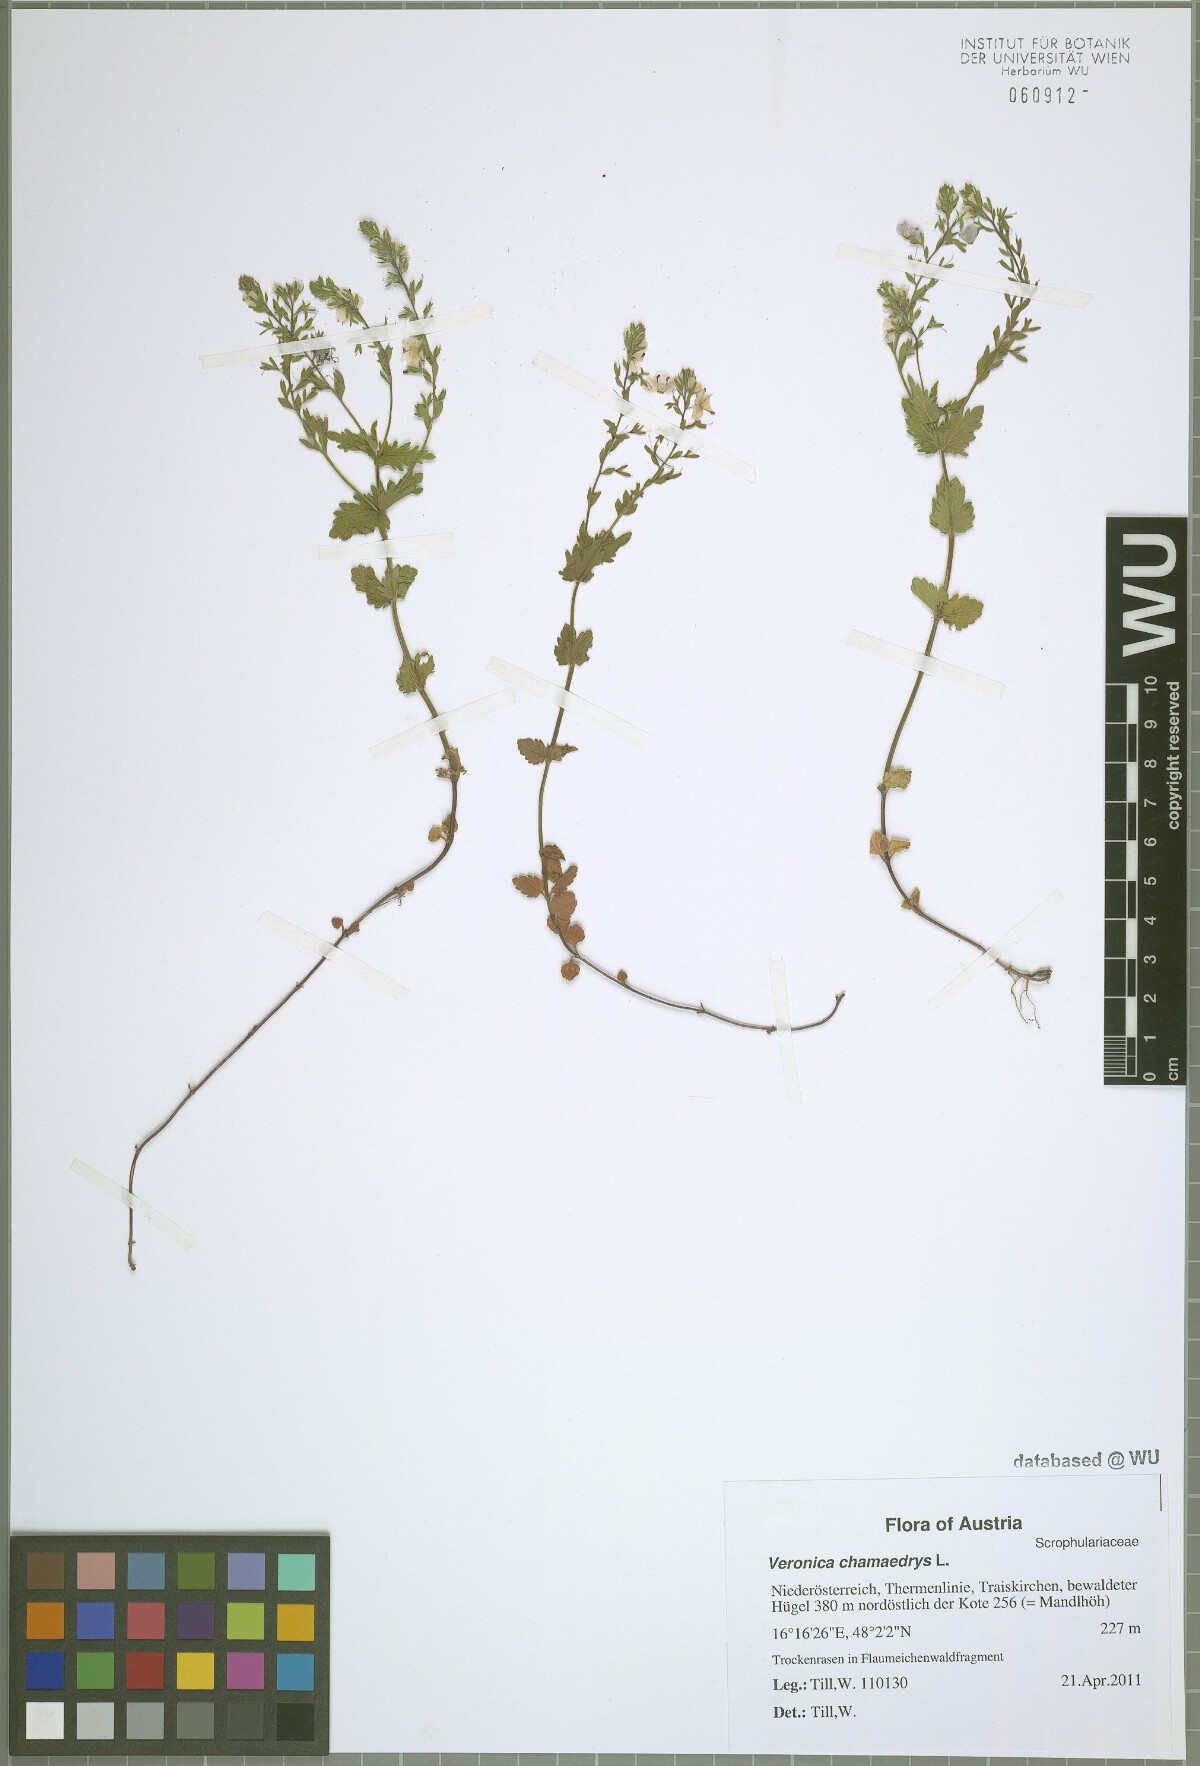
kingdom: Plantae
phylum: Tracheophyta
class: Magnoliopsida
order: Lamiales
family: Plantaginaceae
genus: Veronica
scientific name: Veronica chamaedrys
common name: Germander speedwell
